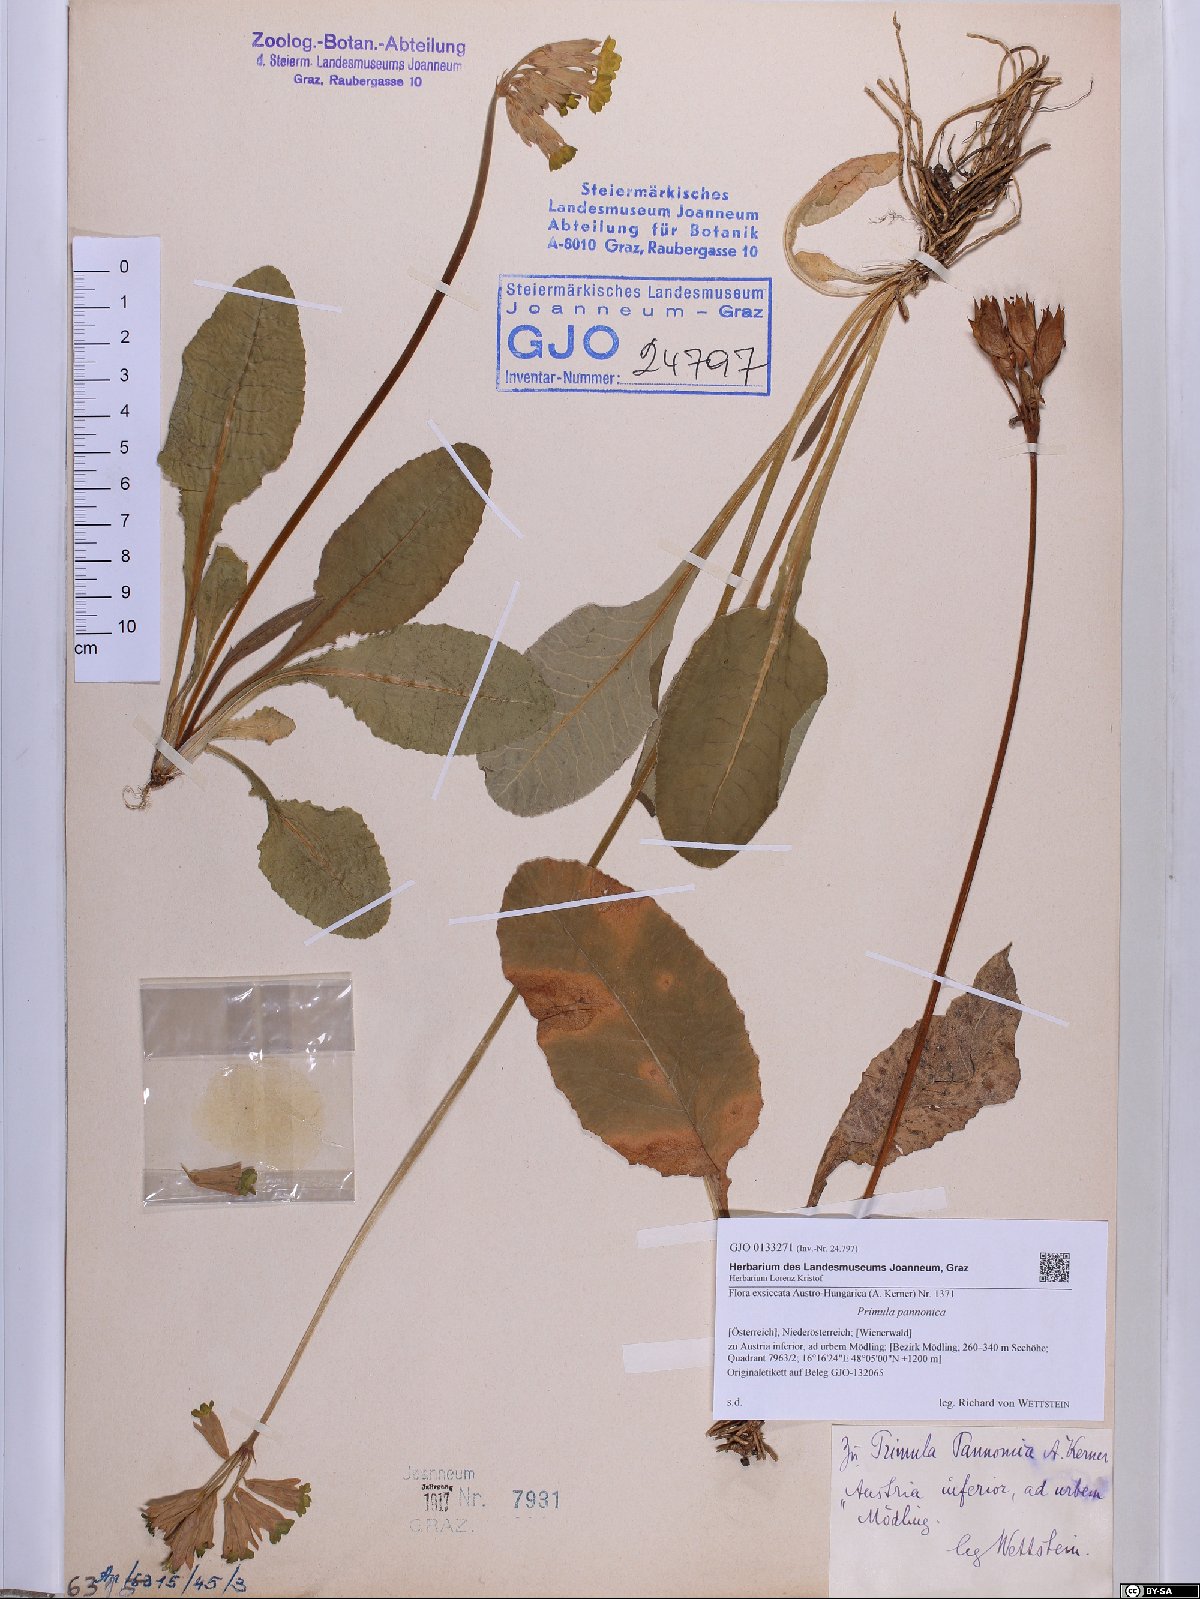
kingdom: Plantae
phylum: Tracheophyta
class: Magnoliopsida
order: Ericales
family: Primulaceae
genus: Primula
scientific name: Primula veris
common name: Cowslip
